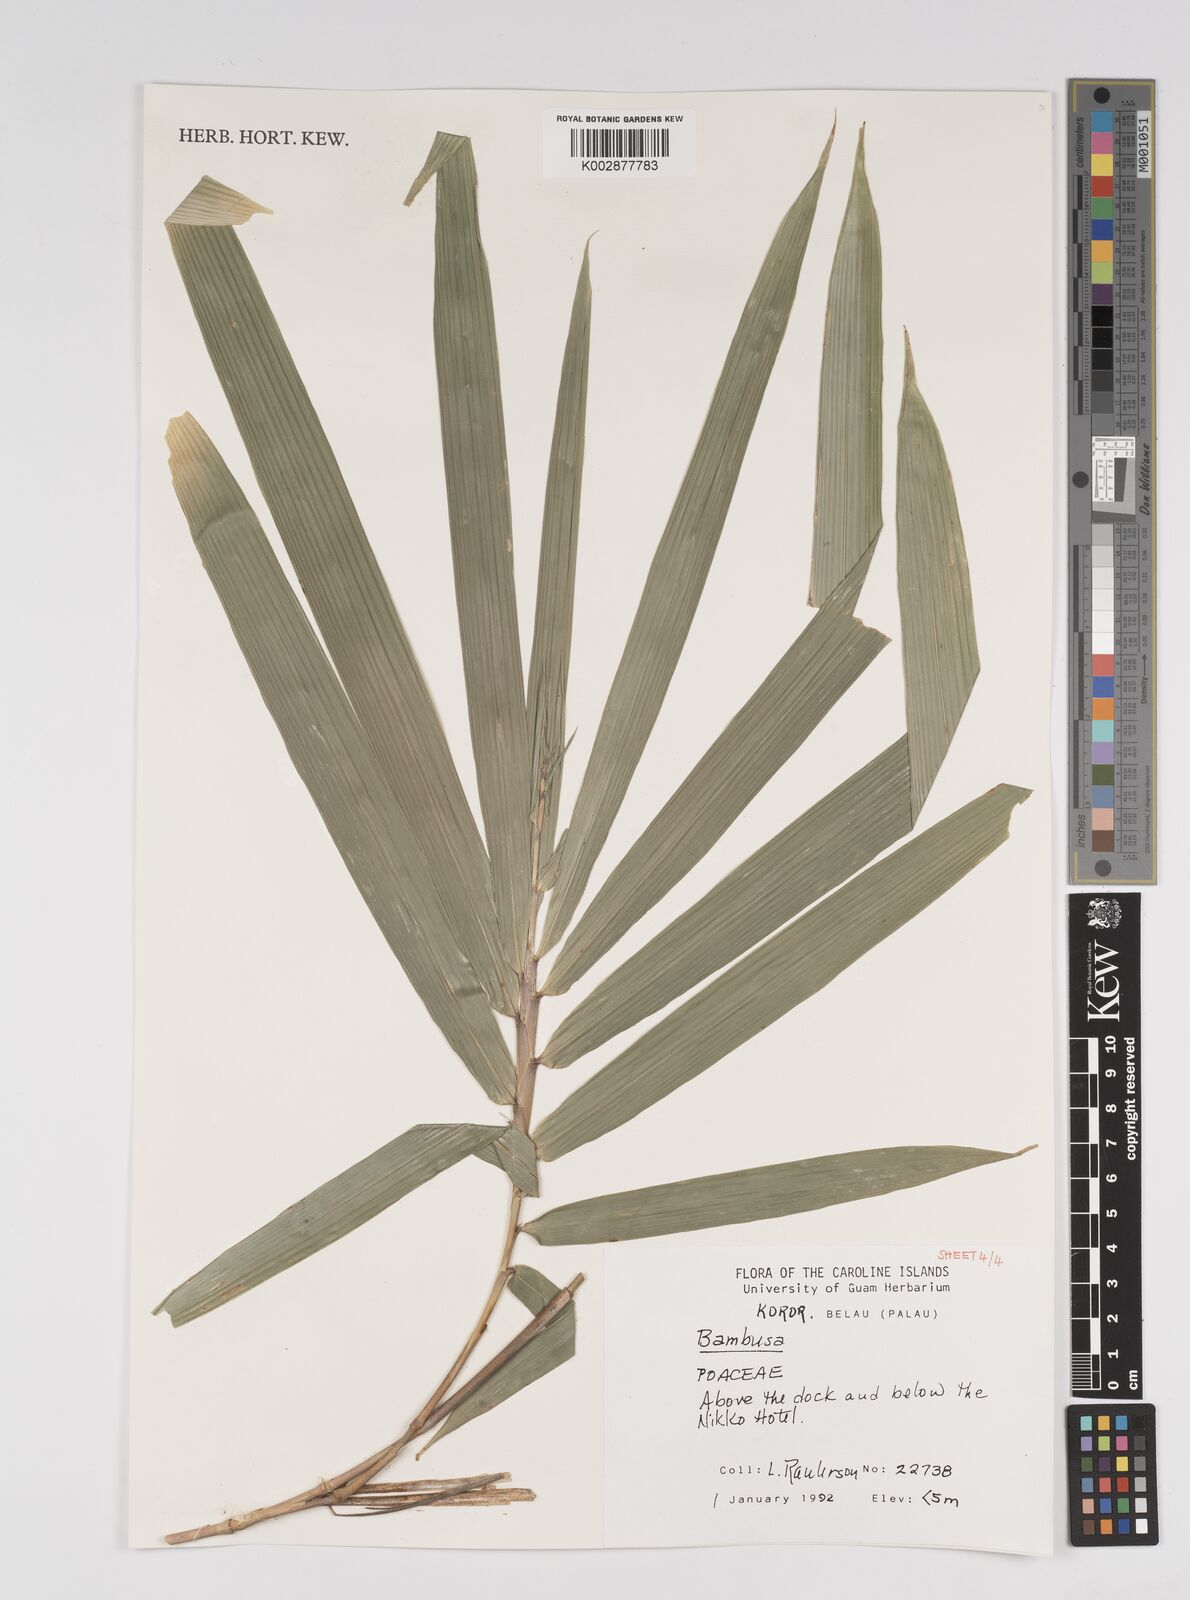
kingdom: Plantae
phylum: Tracheophyta
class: Liliopsida
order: Poales
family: Poaceae
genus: Bambusa
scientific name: Bambusa
